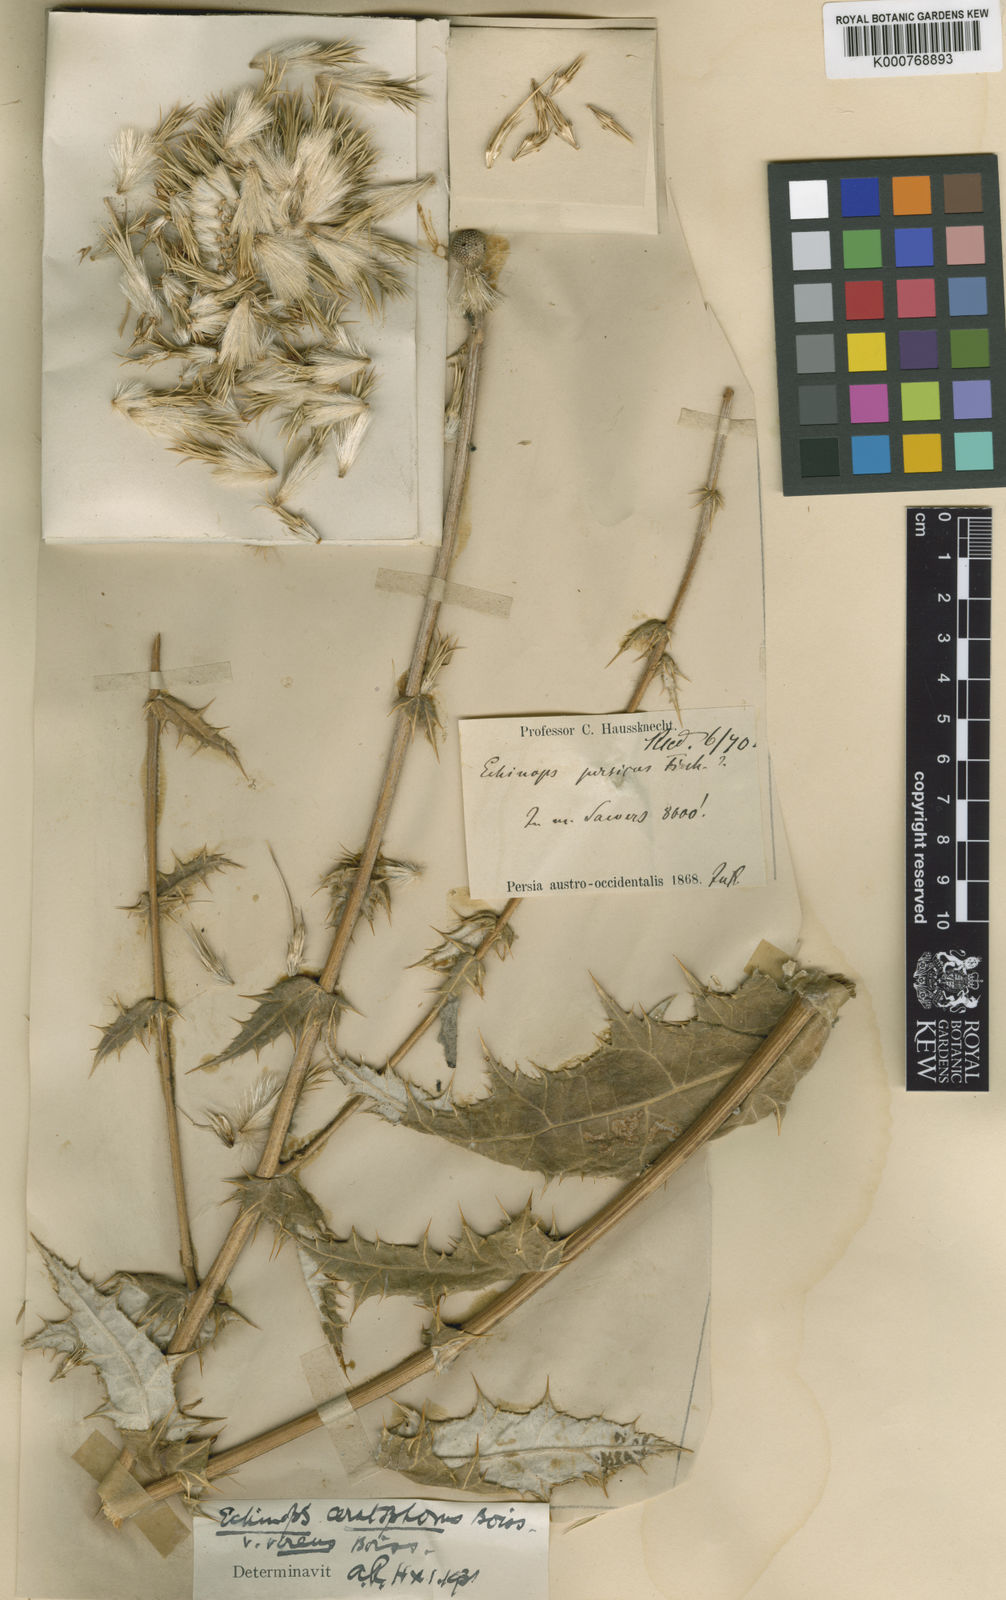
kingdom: Plantae
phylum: Tracheophyta
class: Magnoliopsida
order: Asterales
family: Asteraceae
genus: Echinops
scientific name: Echinops ceratophorus
